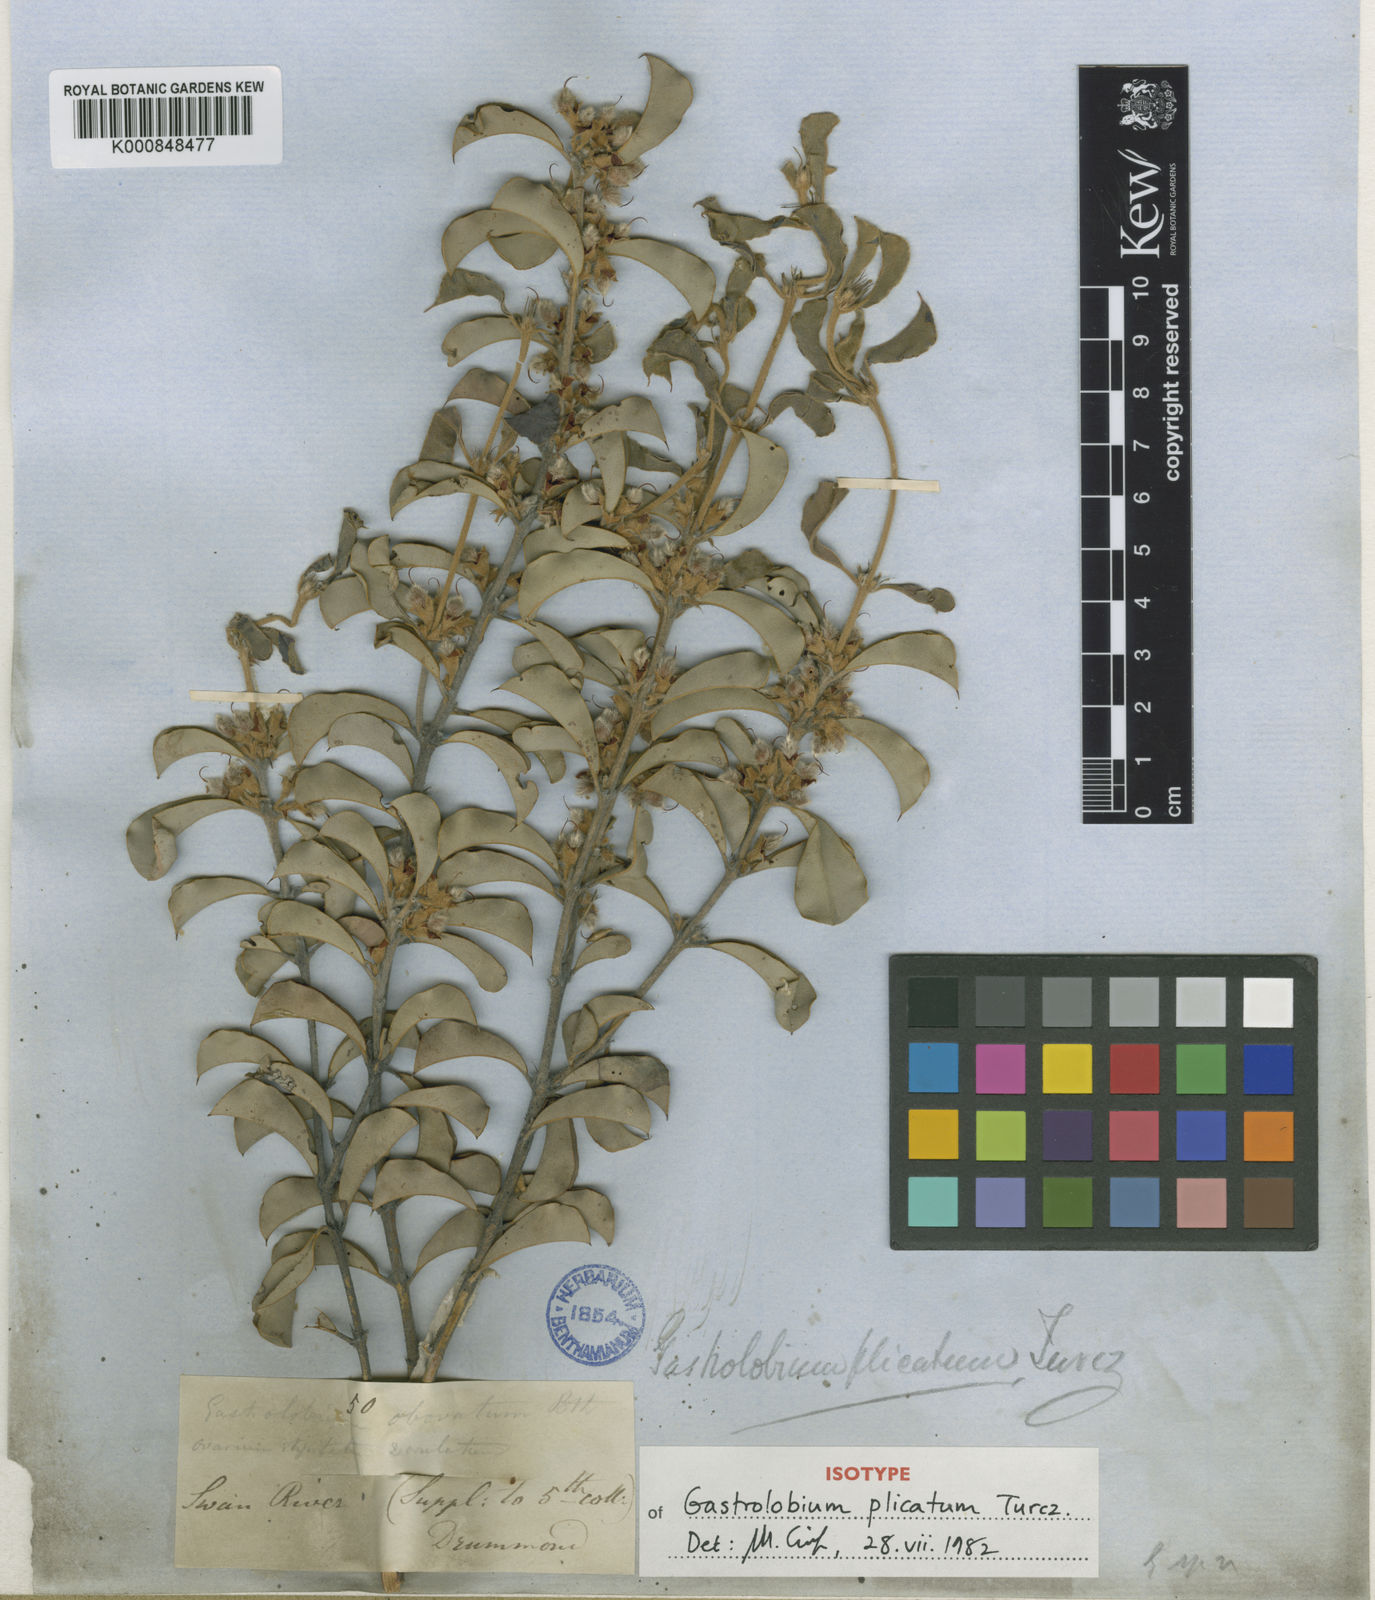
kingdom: Plantae
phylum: Tracheophyta
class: Magnoliopsida
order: Fabales
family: Fabaceae
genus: Gastrolobium
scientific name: Gastrolobium plicatum
